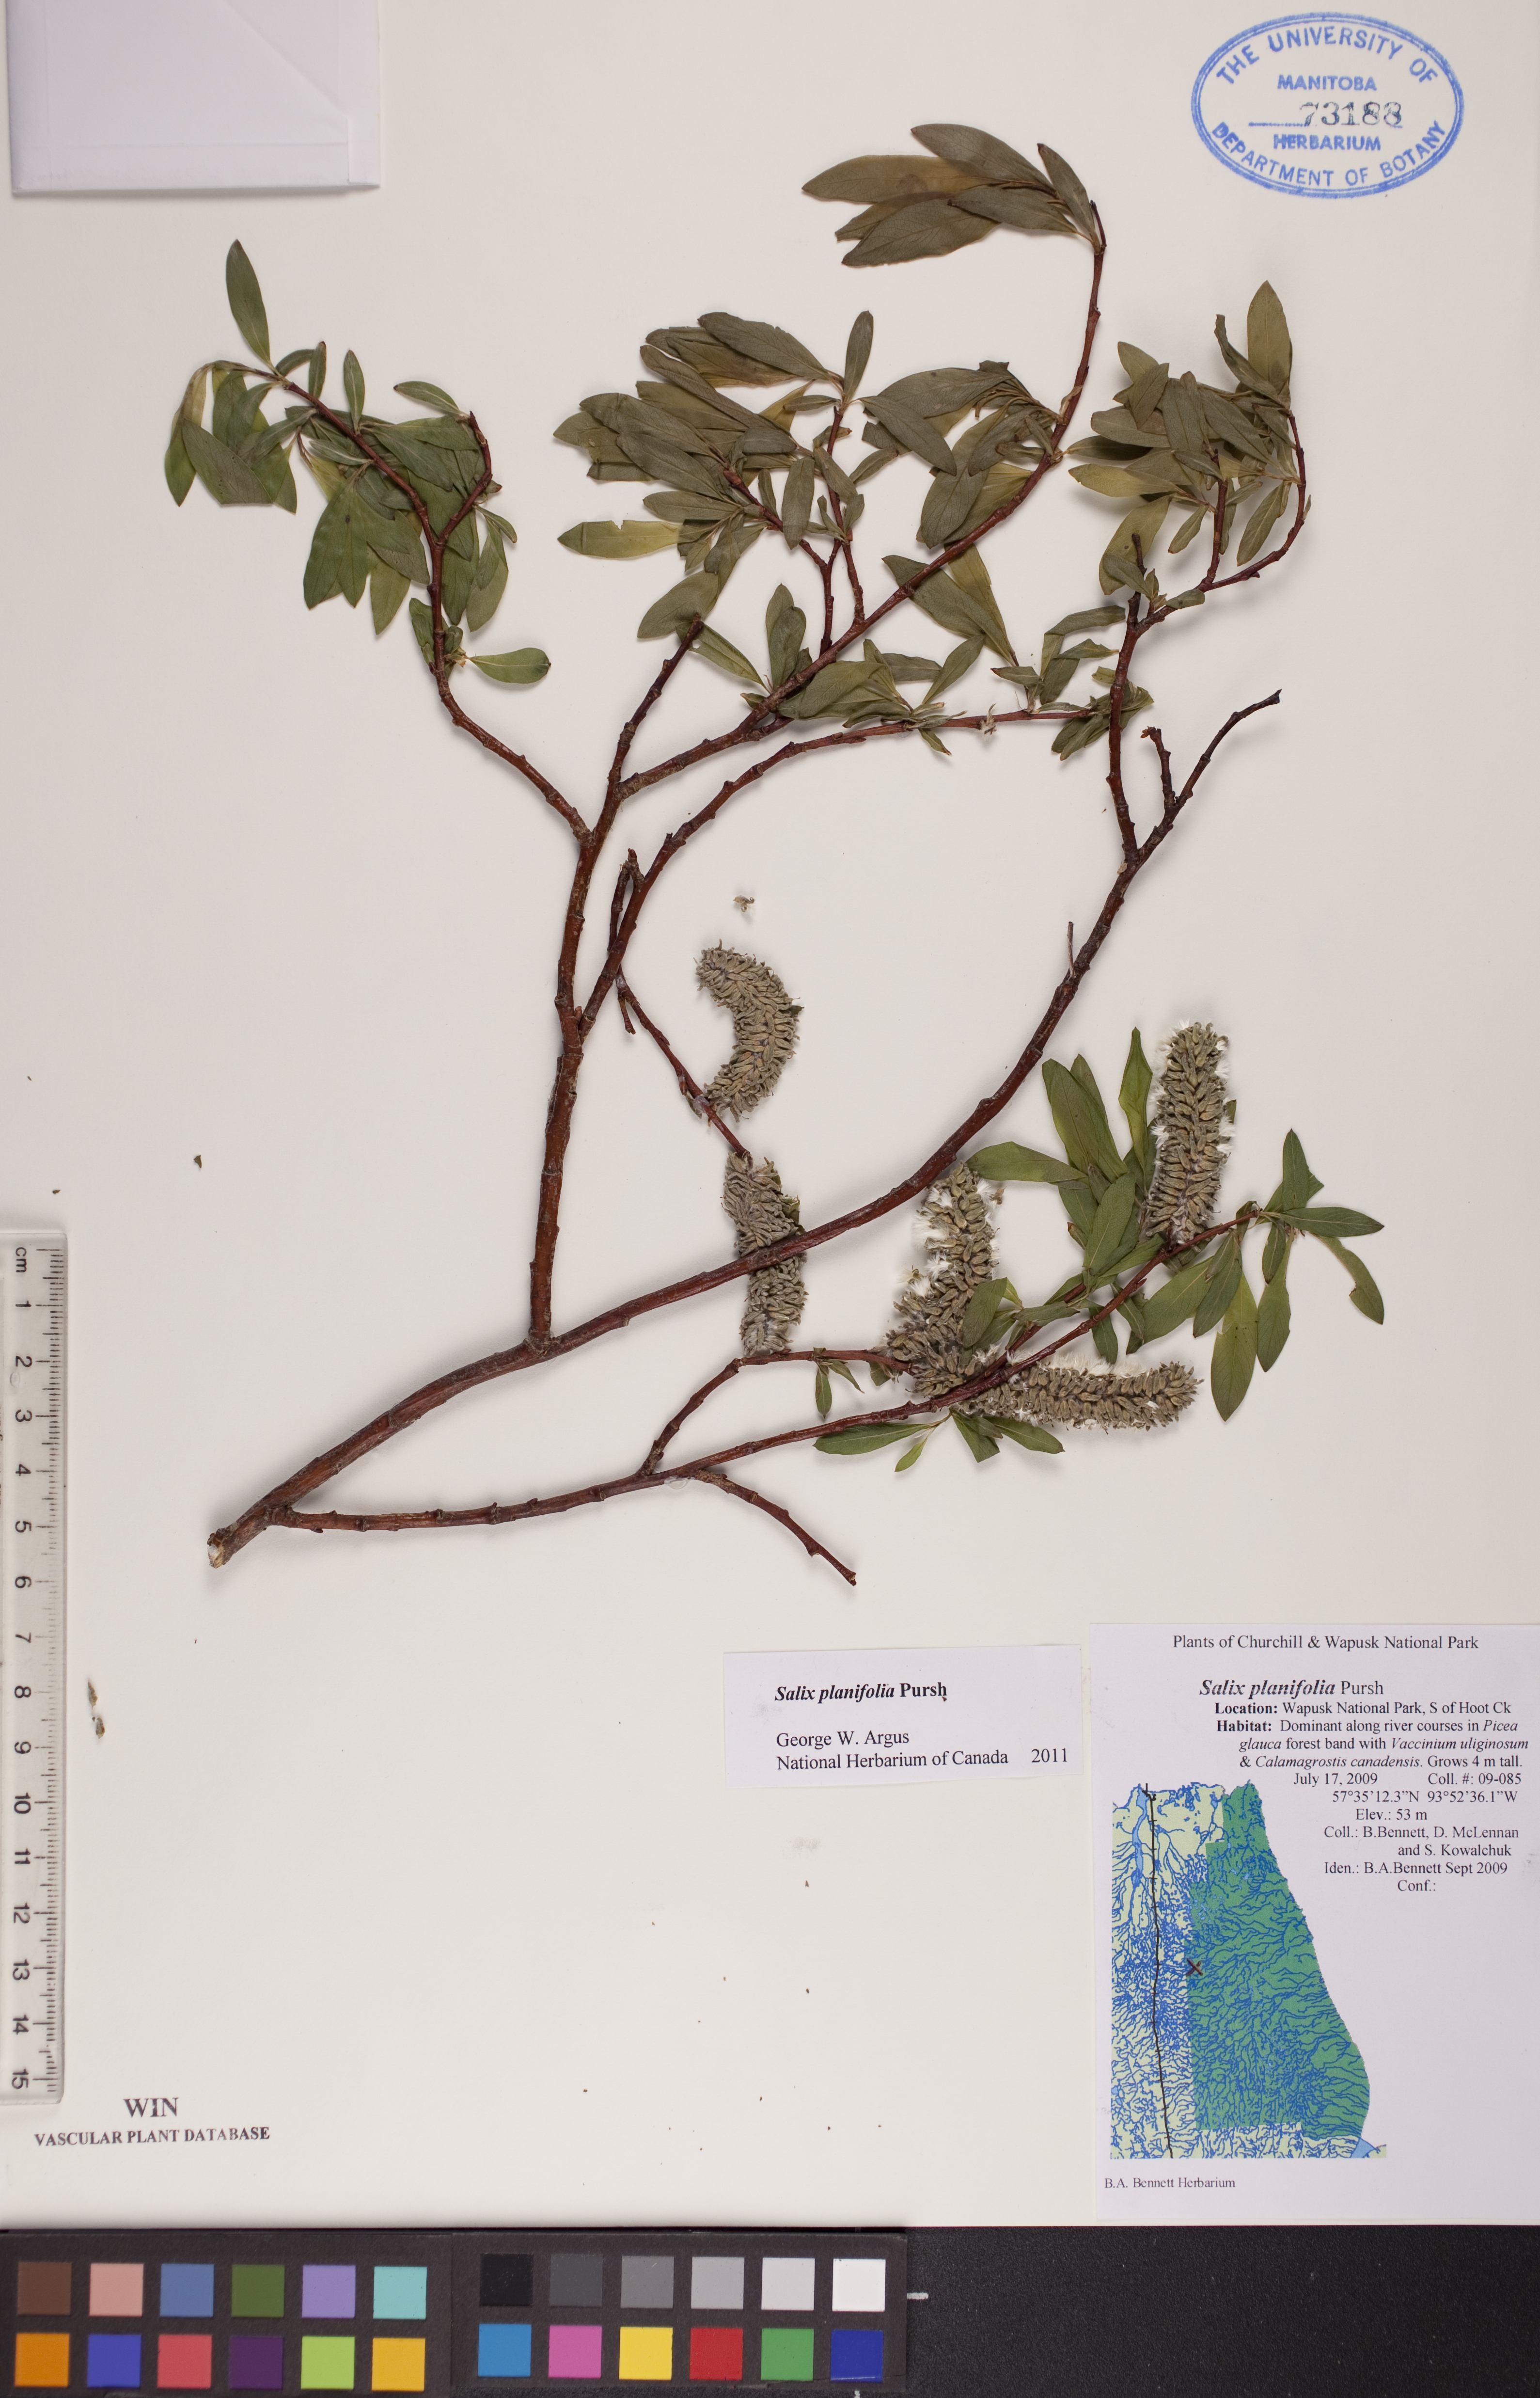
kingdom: Plantae
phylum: Tracheophyta
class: Magnoliopsida
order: Malpighiales
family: Salicaceae
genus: Salix
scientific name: Salix planifolia
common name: Mountain willow
